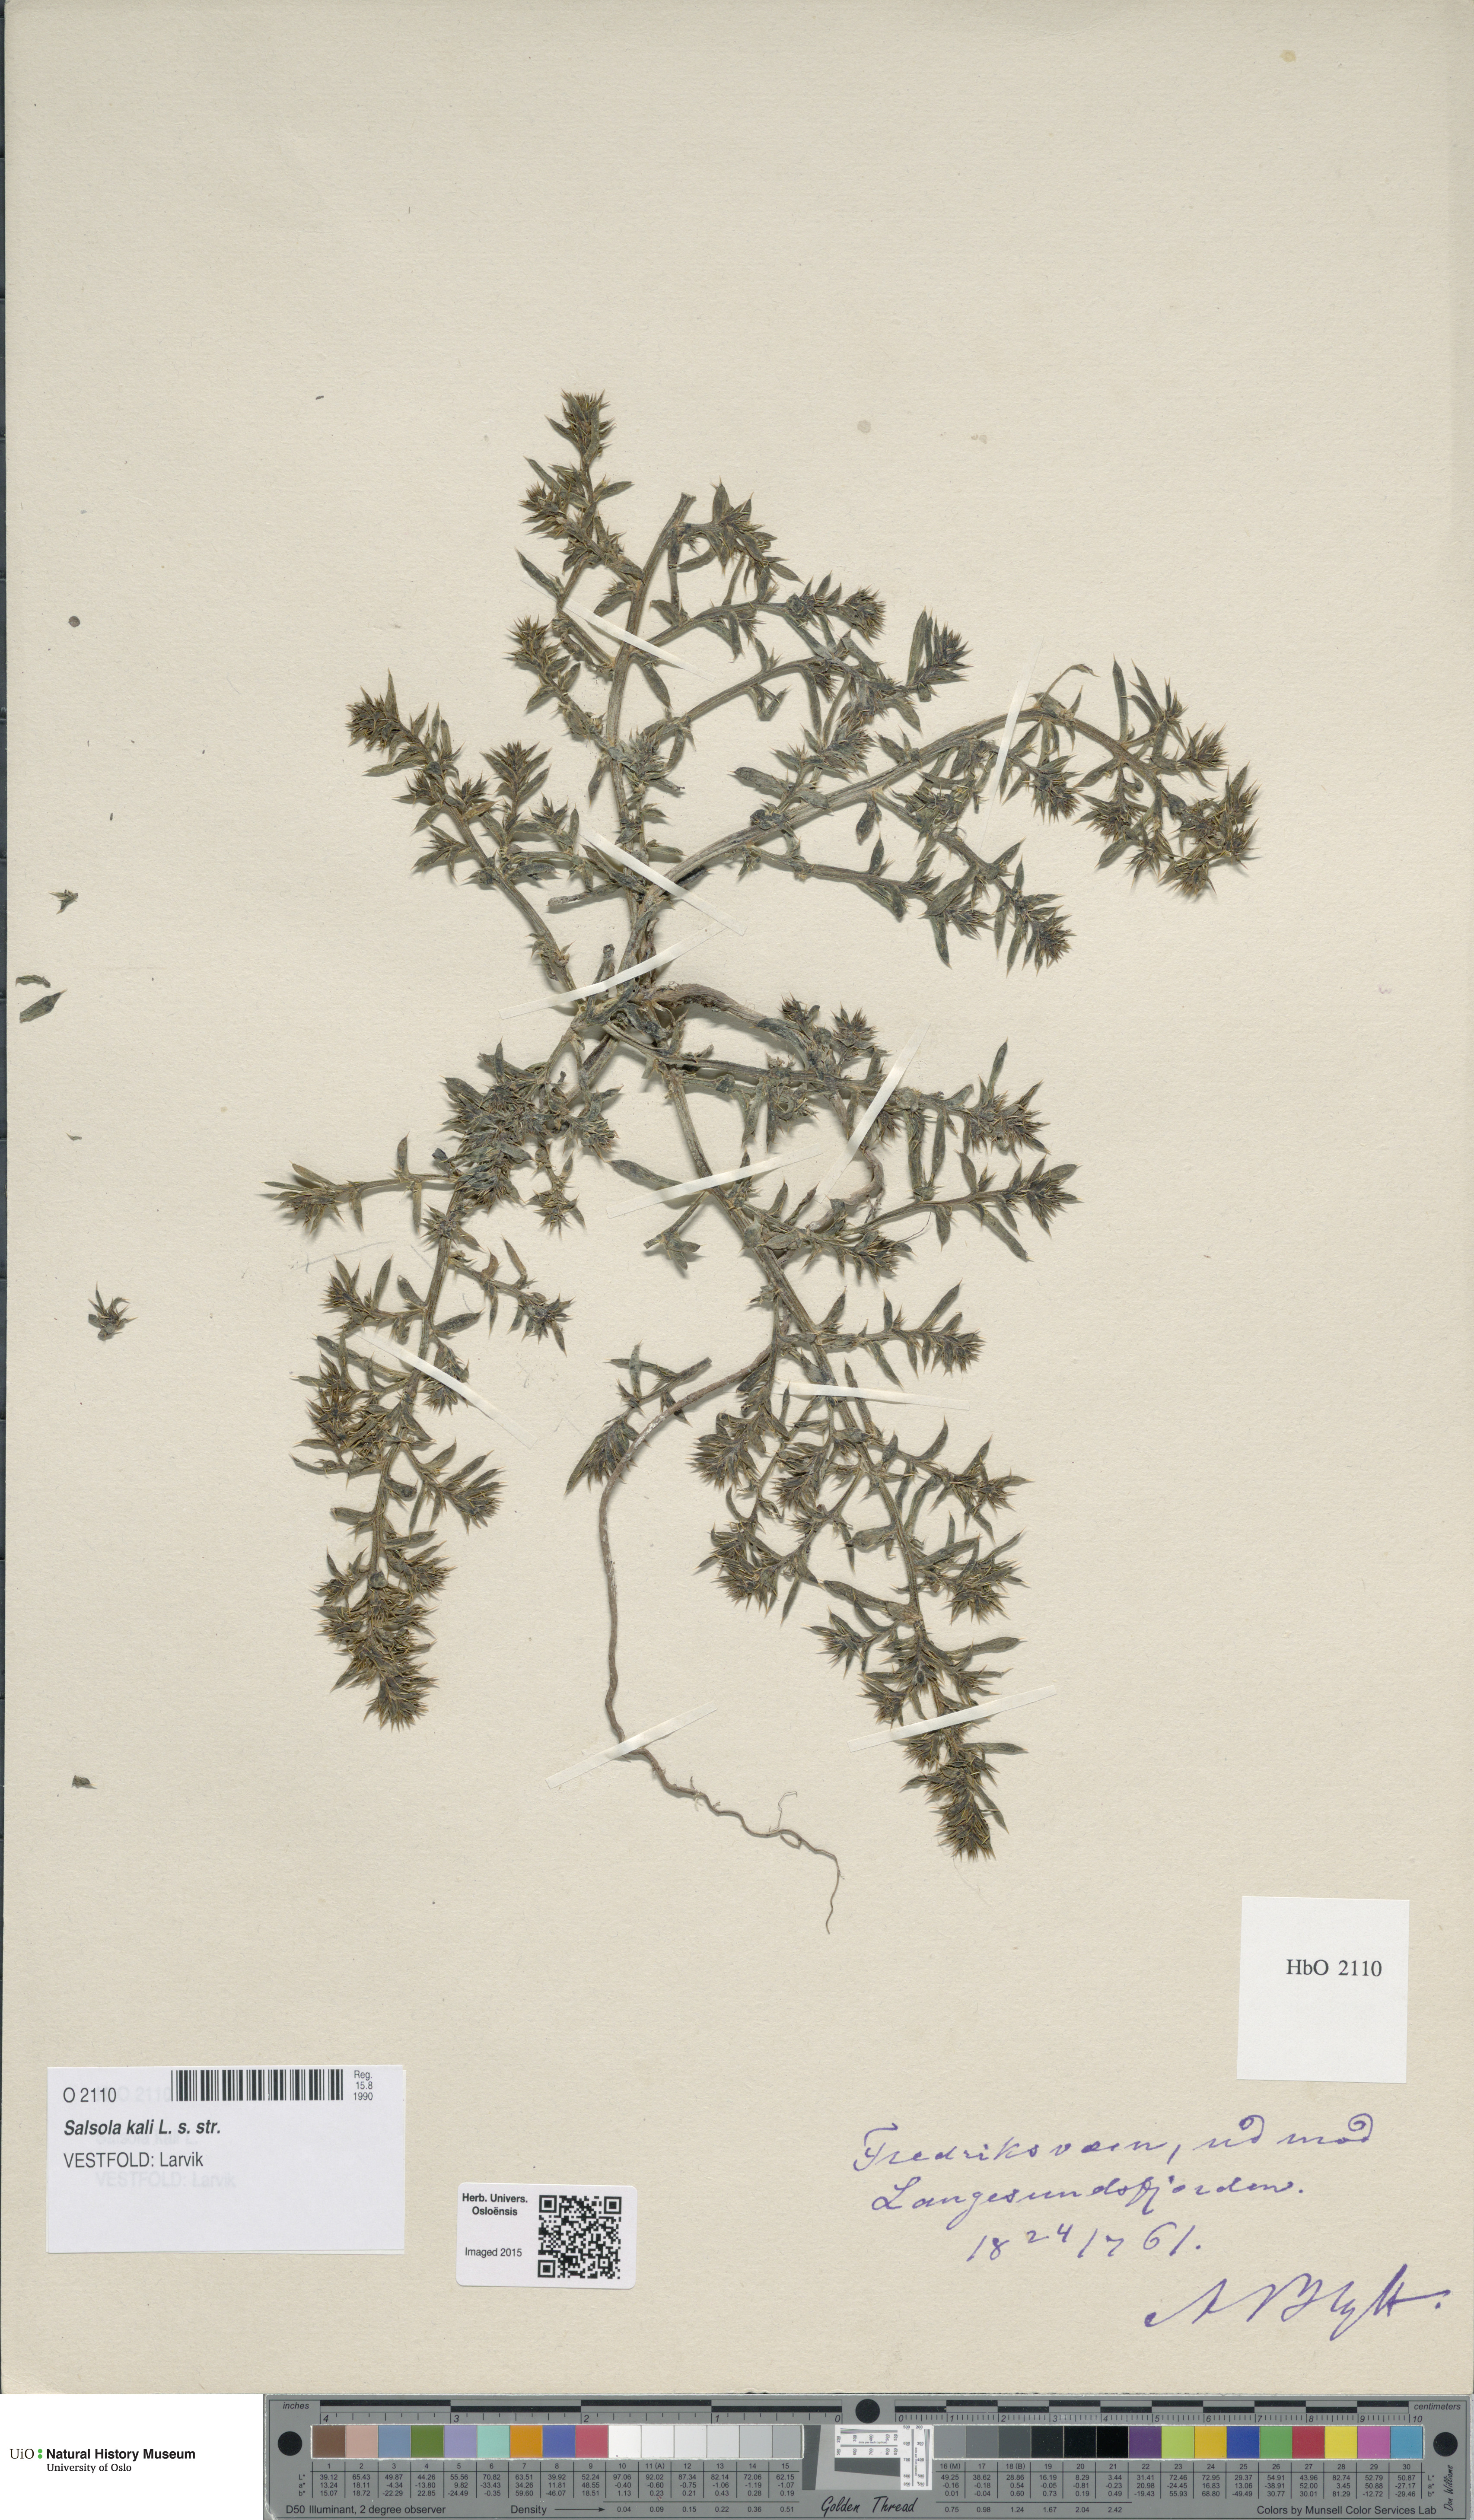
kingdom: Plantae
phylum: Tracheophyta
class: Magnoliopsida
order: Caryophyllales
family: Amaranthaceae
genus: Salsola
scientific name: Salsola kali
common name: Saltwort
